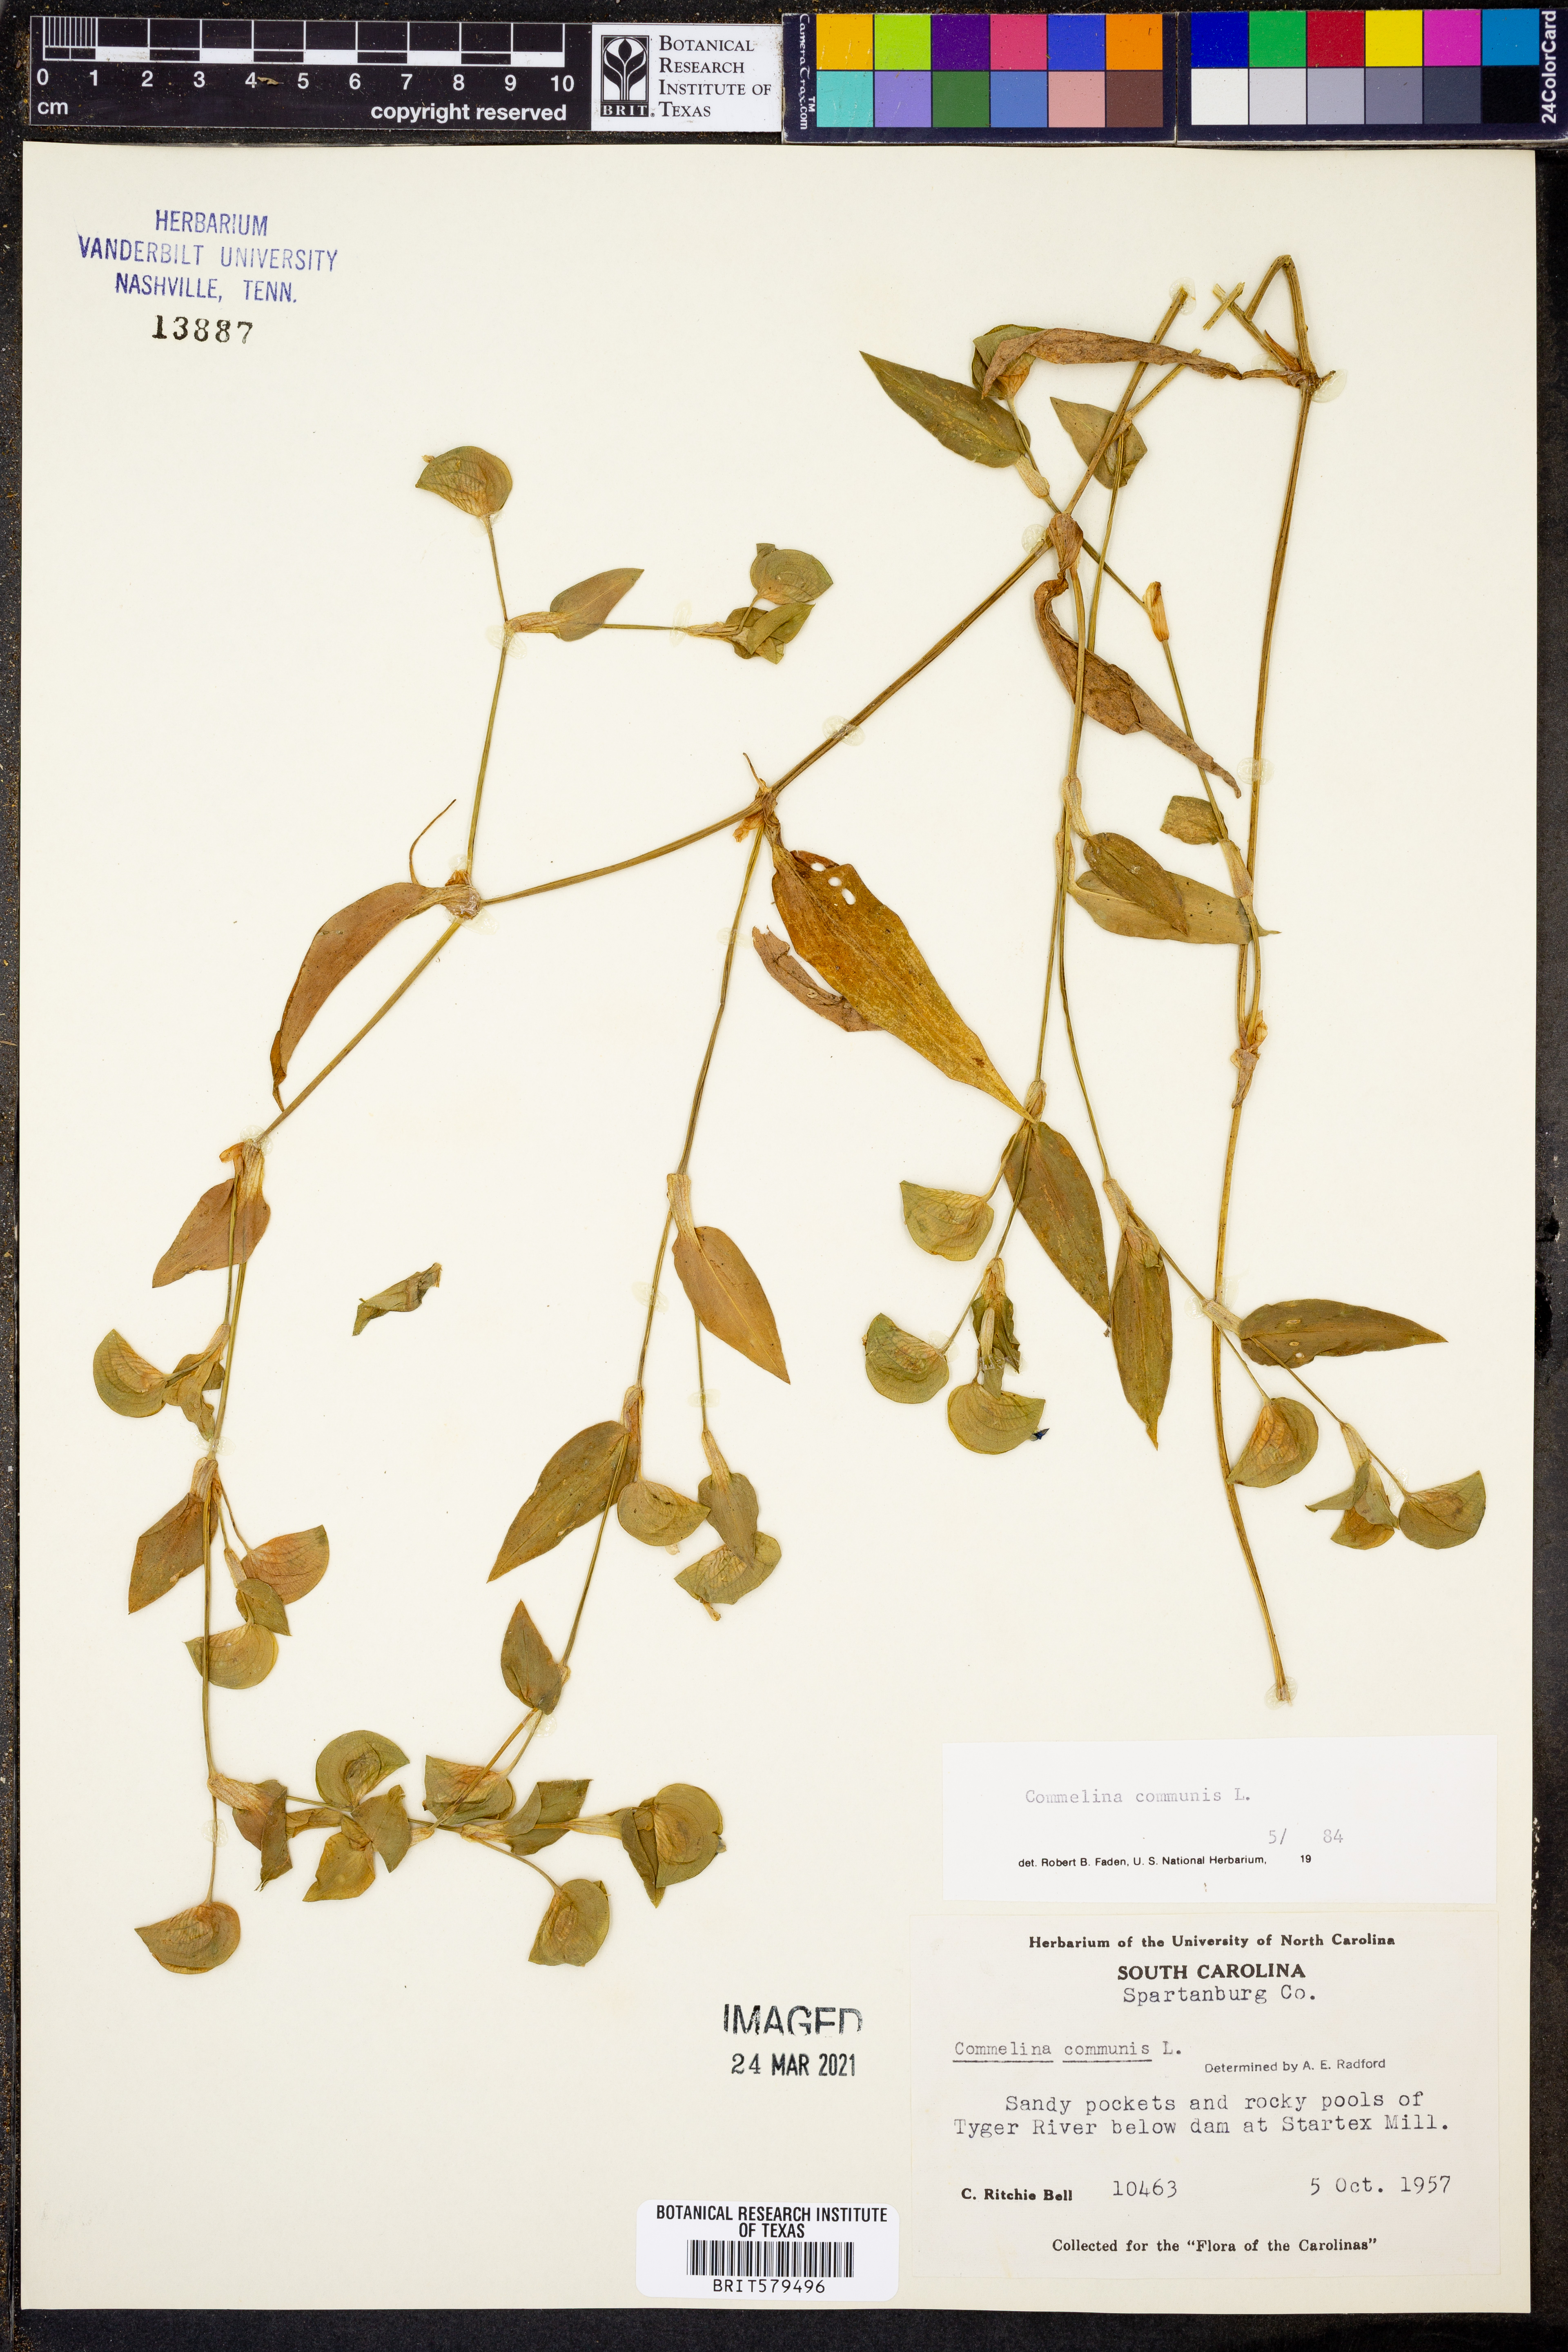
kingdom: Plantae
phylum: Tracheophyta
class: Liliopsida
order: Commelinales
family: Commelinaceae
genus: Commelina
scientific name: Commelina communis
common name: Asiatic dayflower
